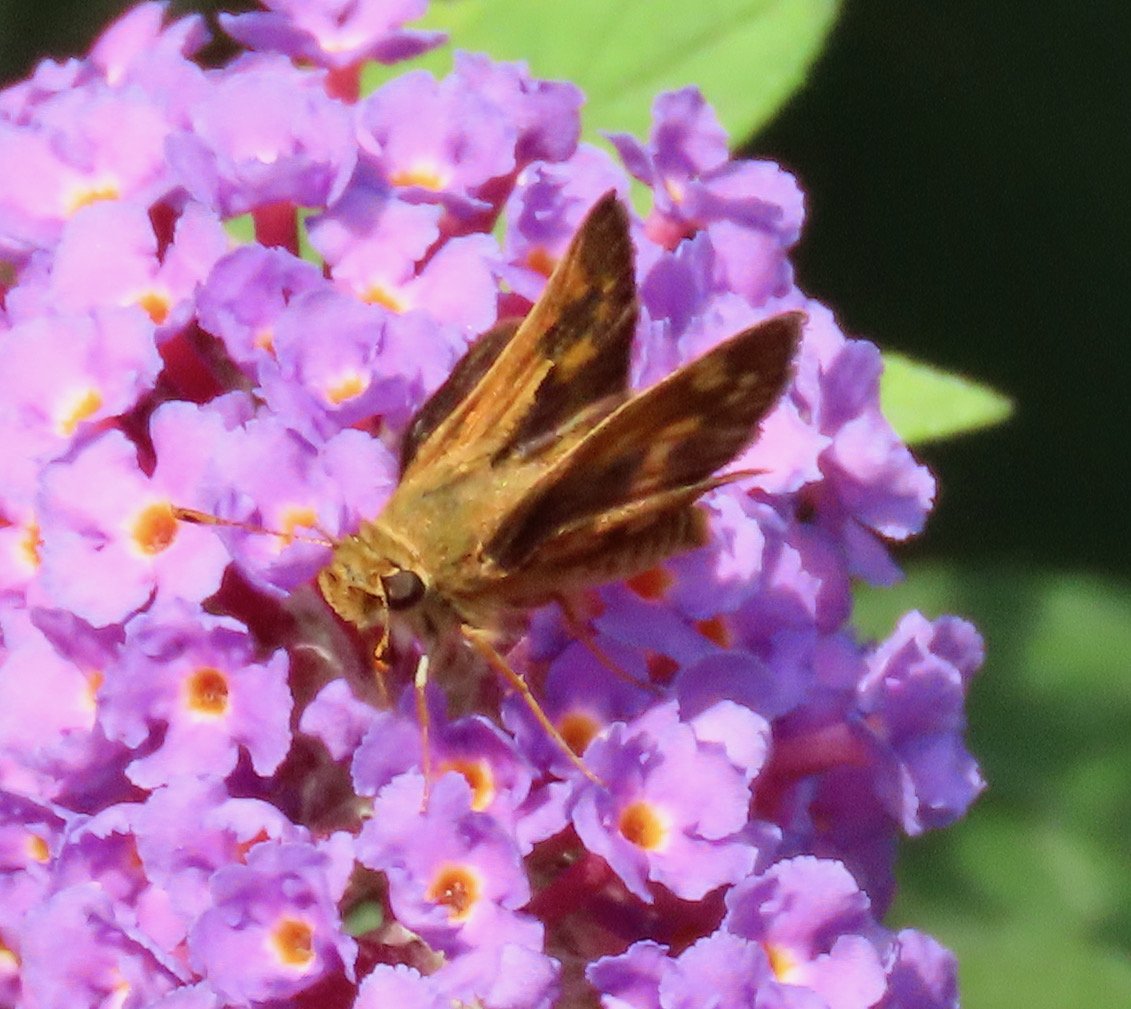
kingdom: Animalia
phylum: Arthropoda
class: Insecta
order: Lepidoptera
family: Hesperiidae
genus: Polites
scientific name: Polites coras
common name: Peck's Skipper
